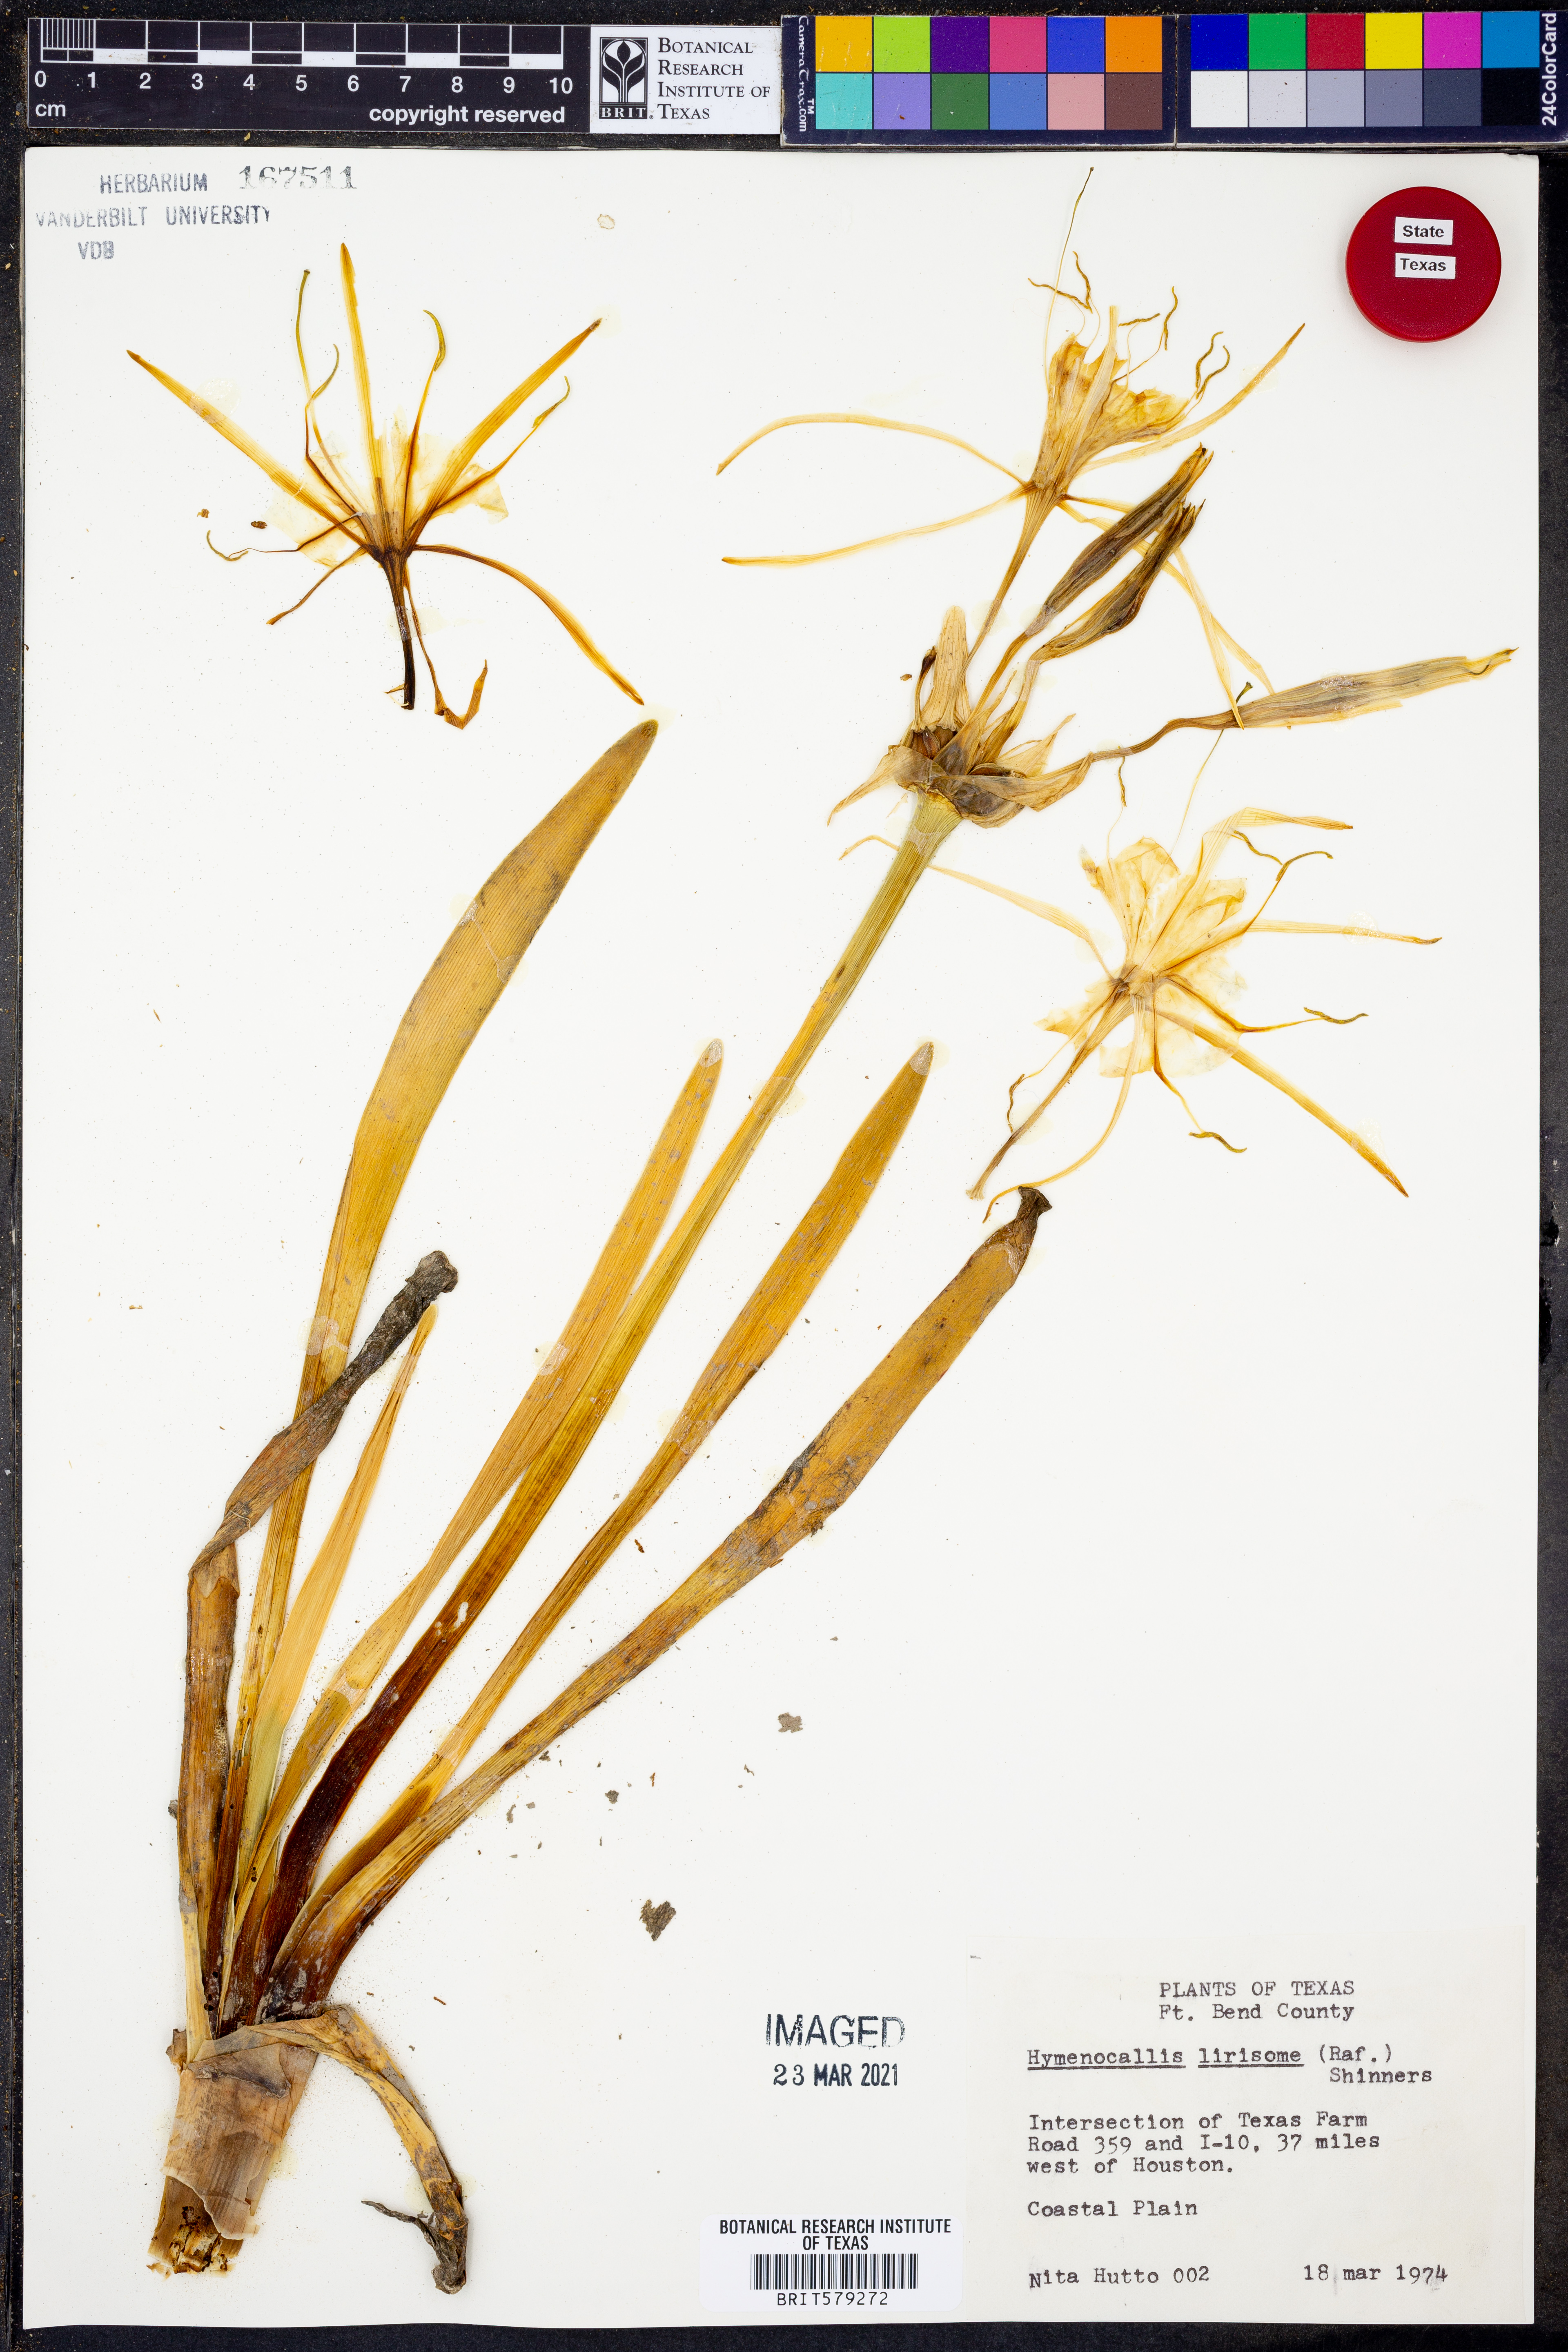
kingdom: Plantae
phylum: Tracheophyta
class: Liliopsida
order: Asparagales
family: Amaryllidaceae
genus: Hymenocallis
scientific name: Hymenocallis liriosme
